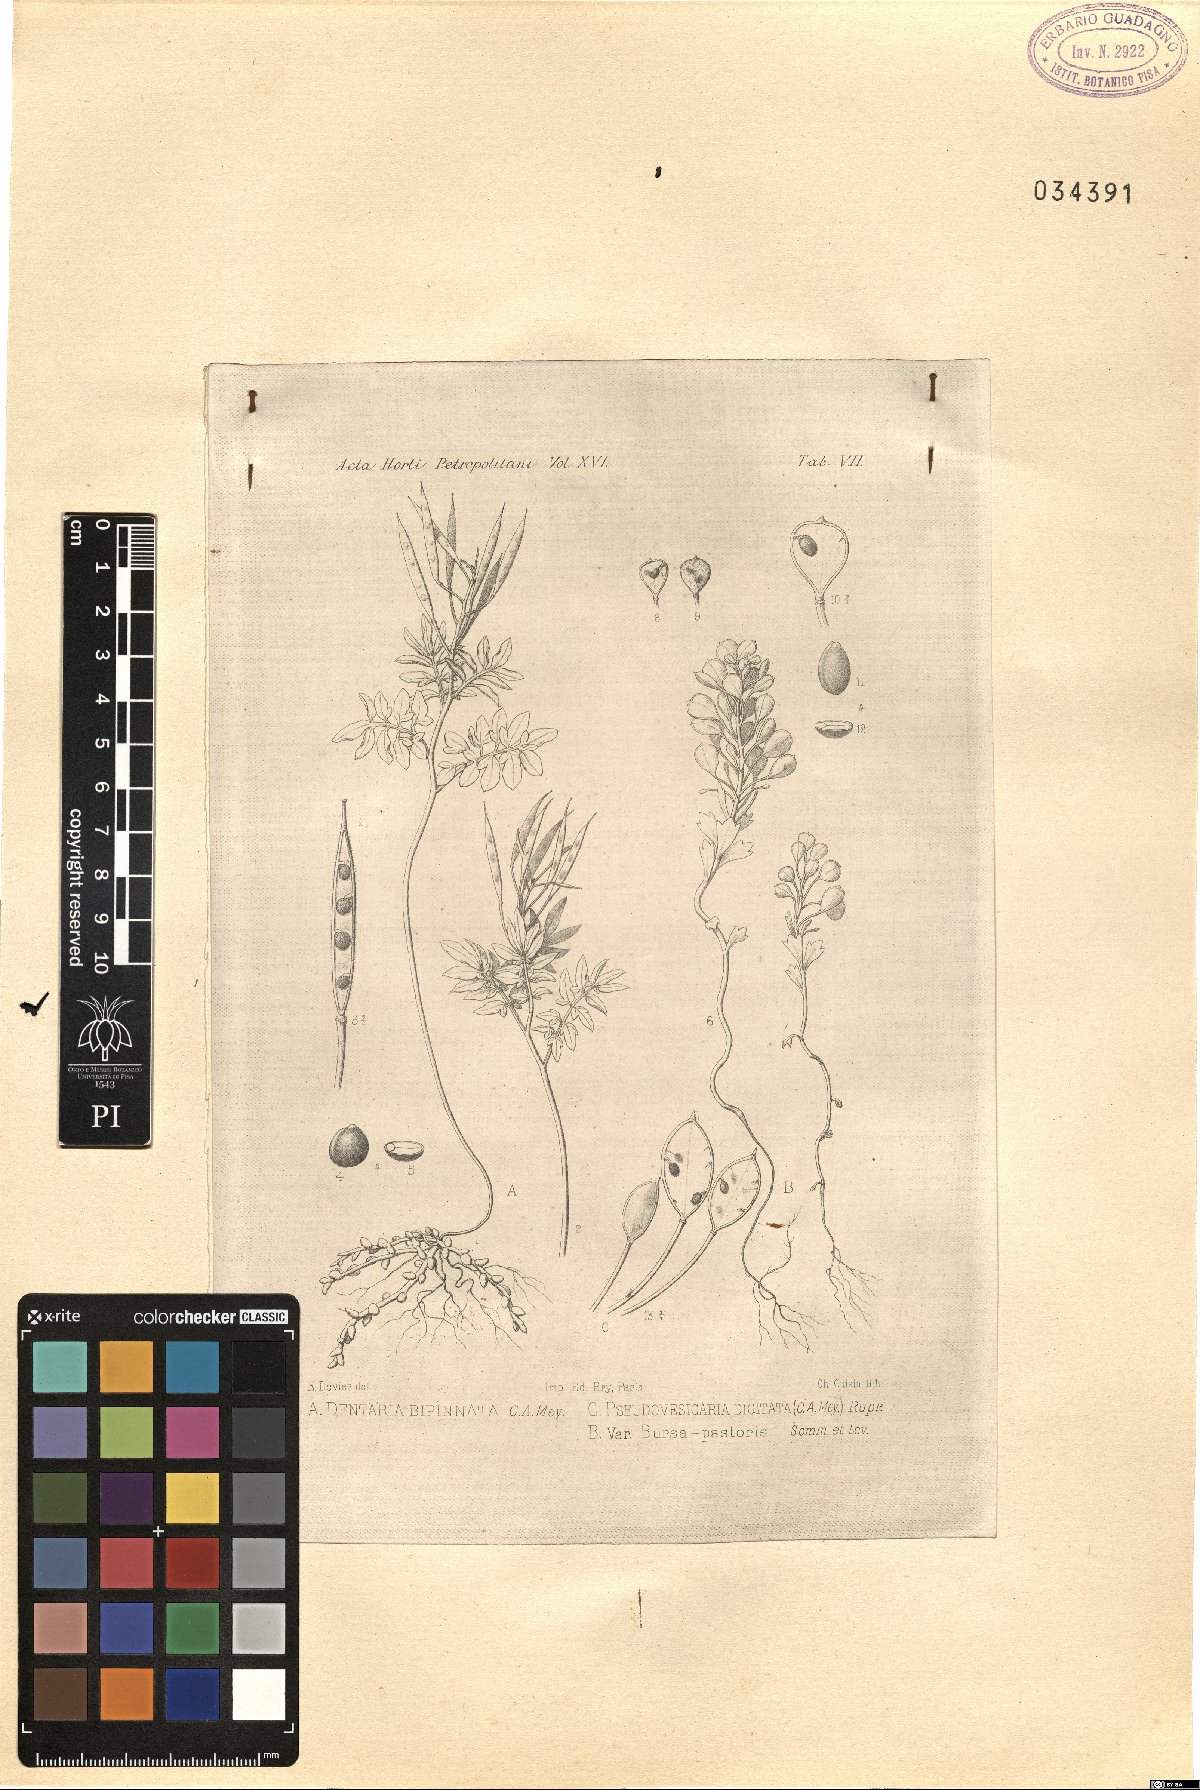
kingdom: Plantae
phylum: Tracheophyta
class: Magnoliopsida
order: Brassicales
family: Brassicaceae
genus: Pseudovesicaria
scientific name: Pseudovesicaria digitata
